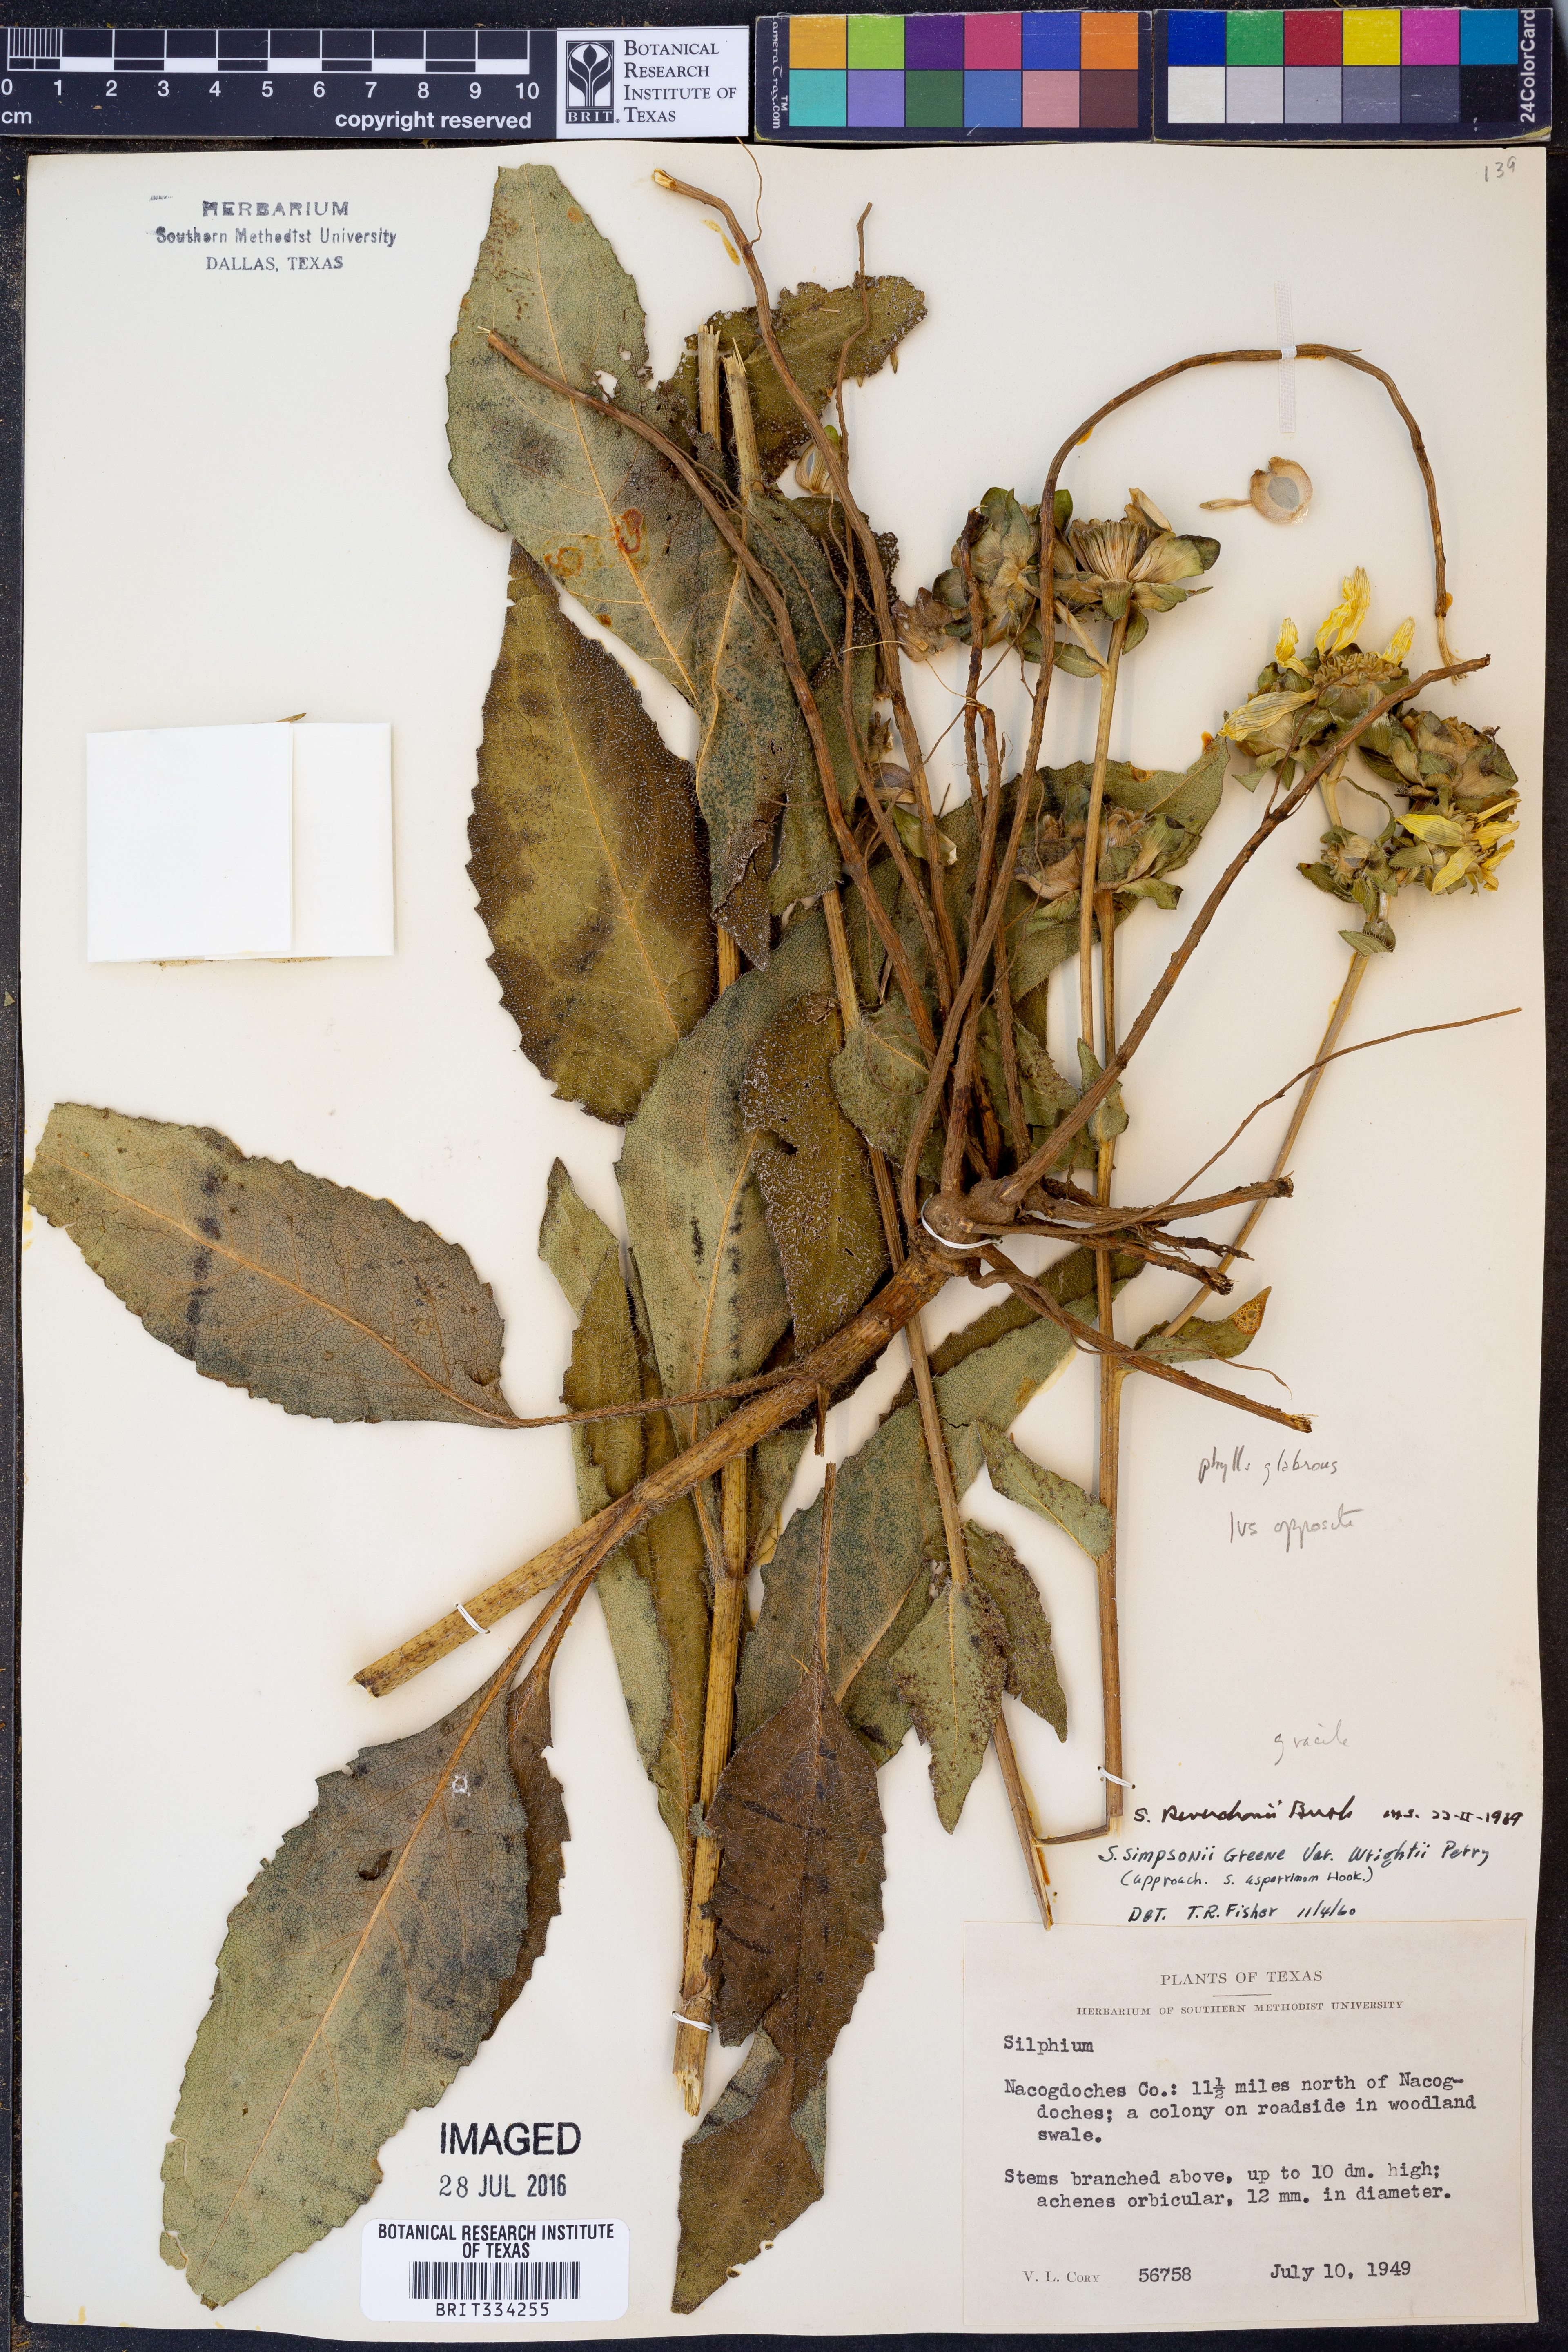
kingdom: Plantae
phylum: Tracheophyta
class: Magnoliopsida
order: Asterales
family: Asteraceae
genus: Silphium
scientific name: Silphium radula
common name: Roughleaf rosinweed
